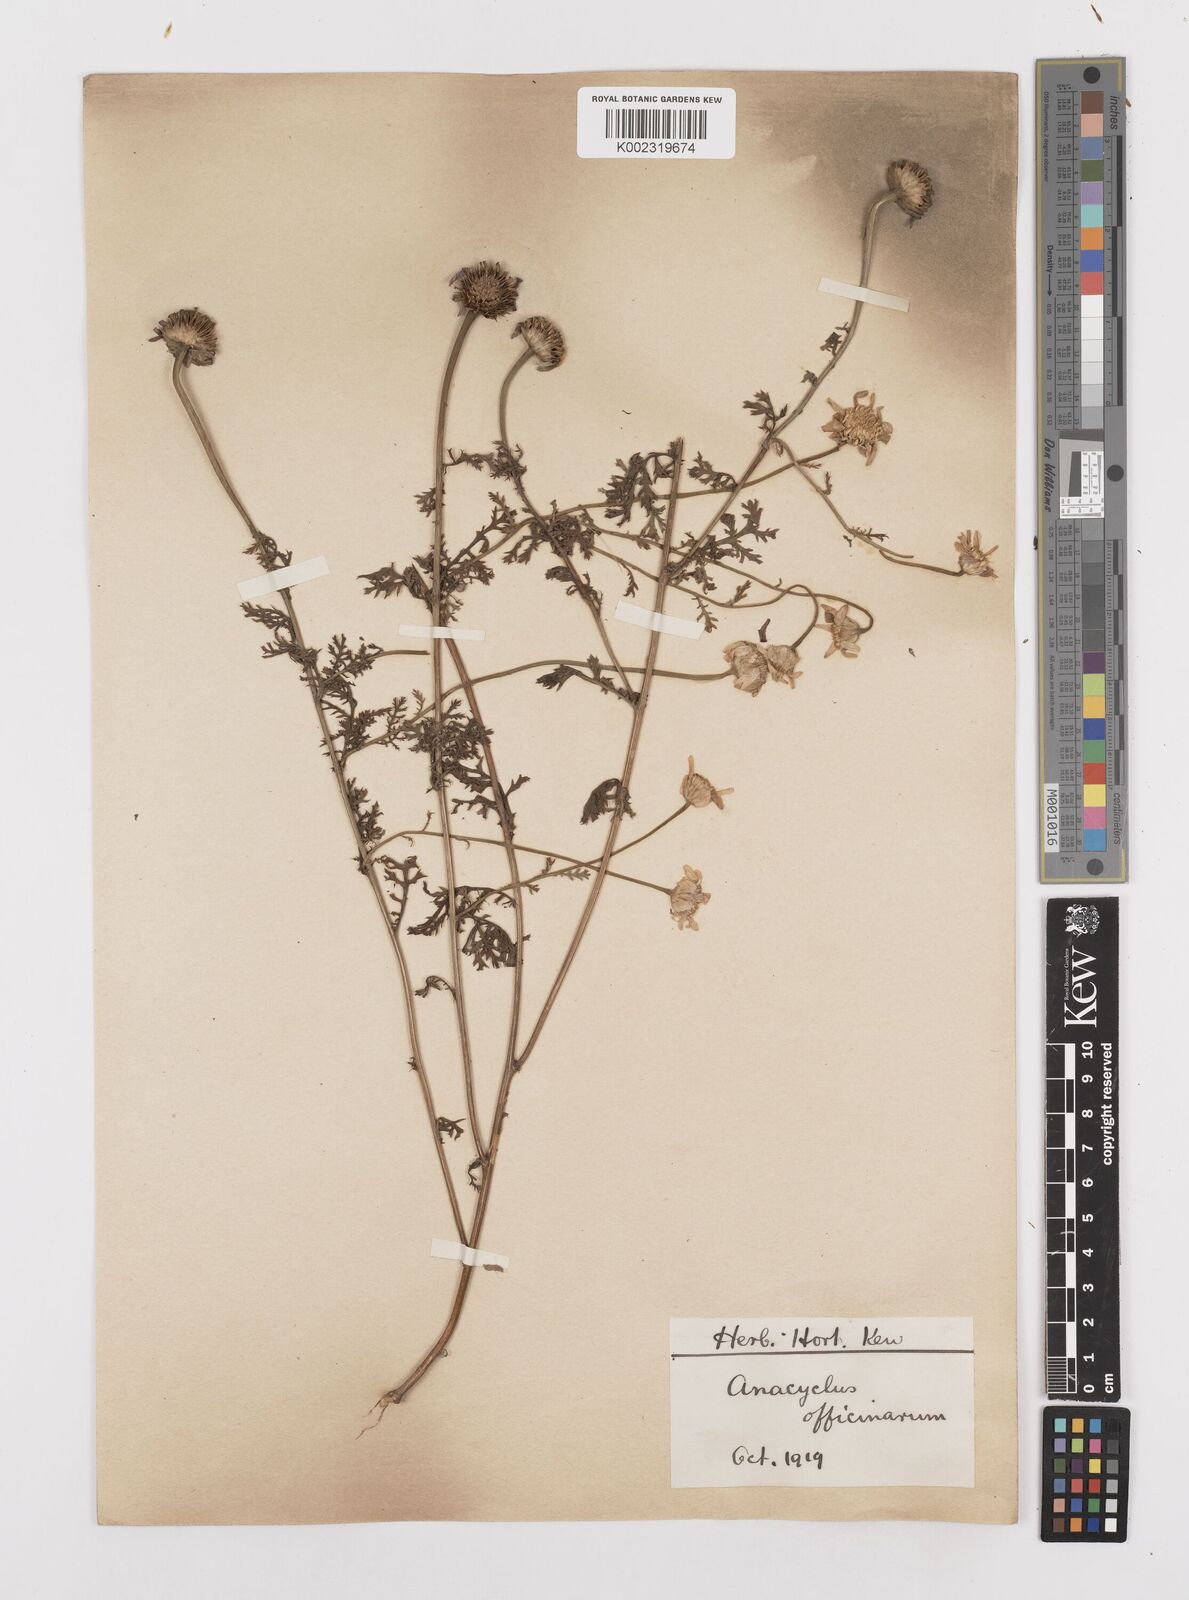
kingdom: Plantae
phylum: Tracheophyta
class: Magnoliopsida
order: Asterales
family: Asteraceae
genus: Anacyclus
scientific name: Anacyclus pyrethrum
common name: Mt. atlas daisy
